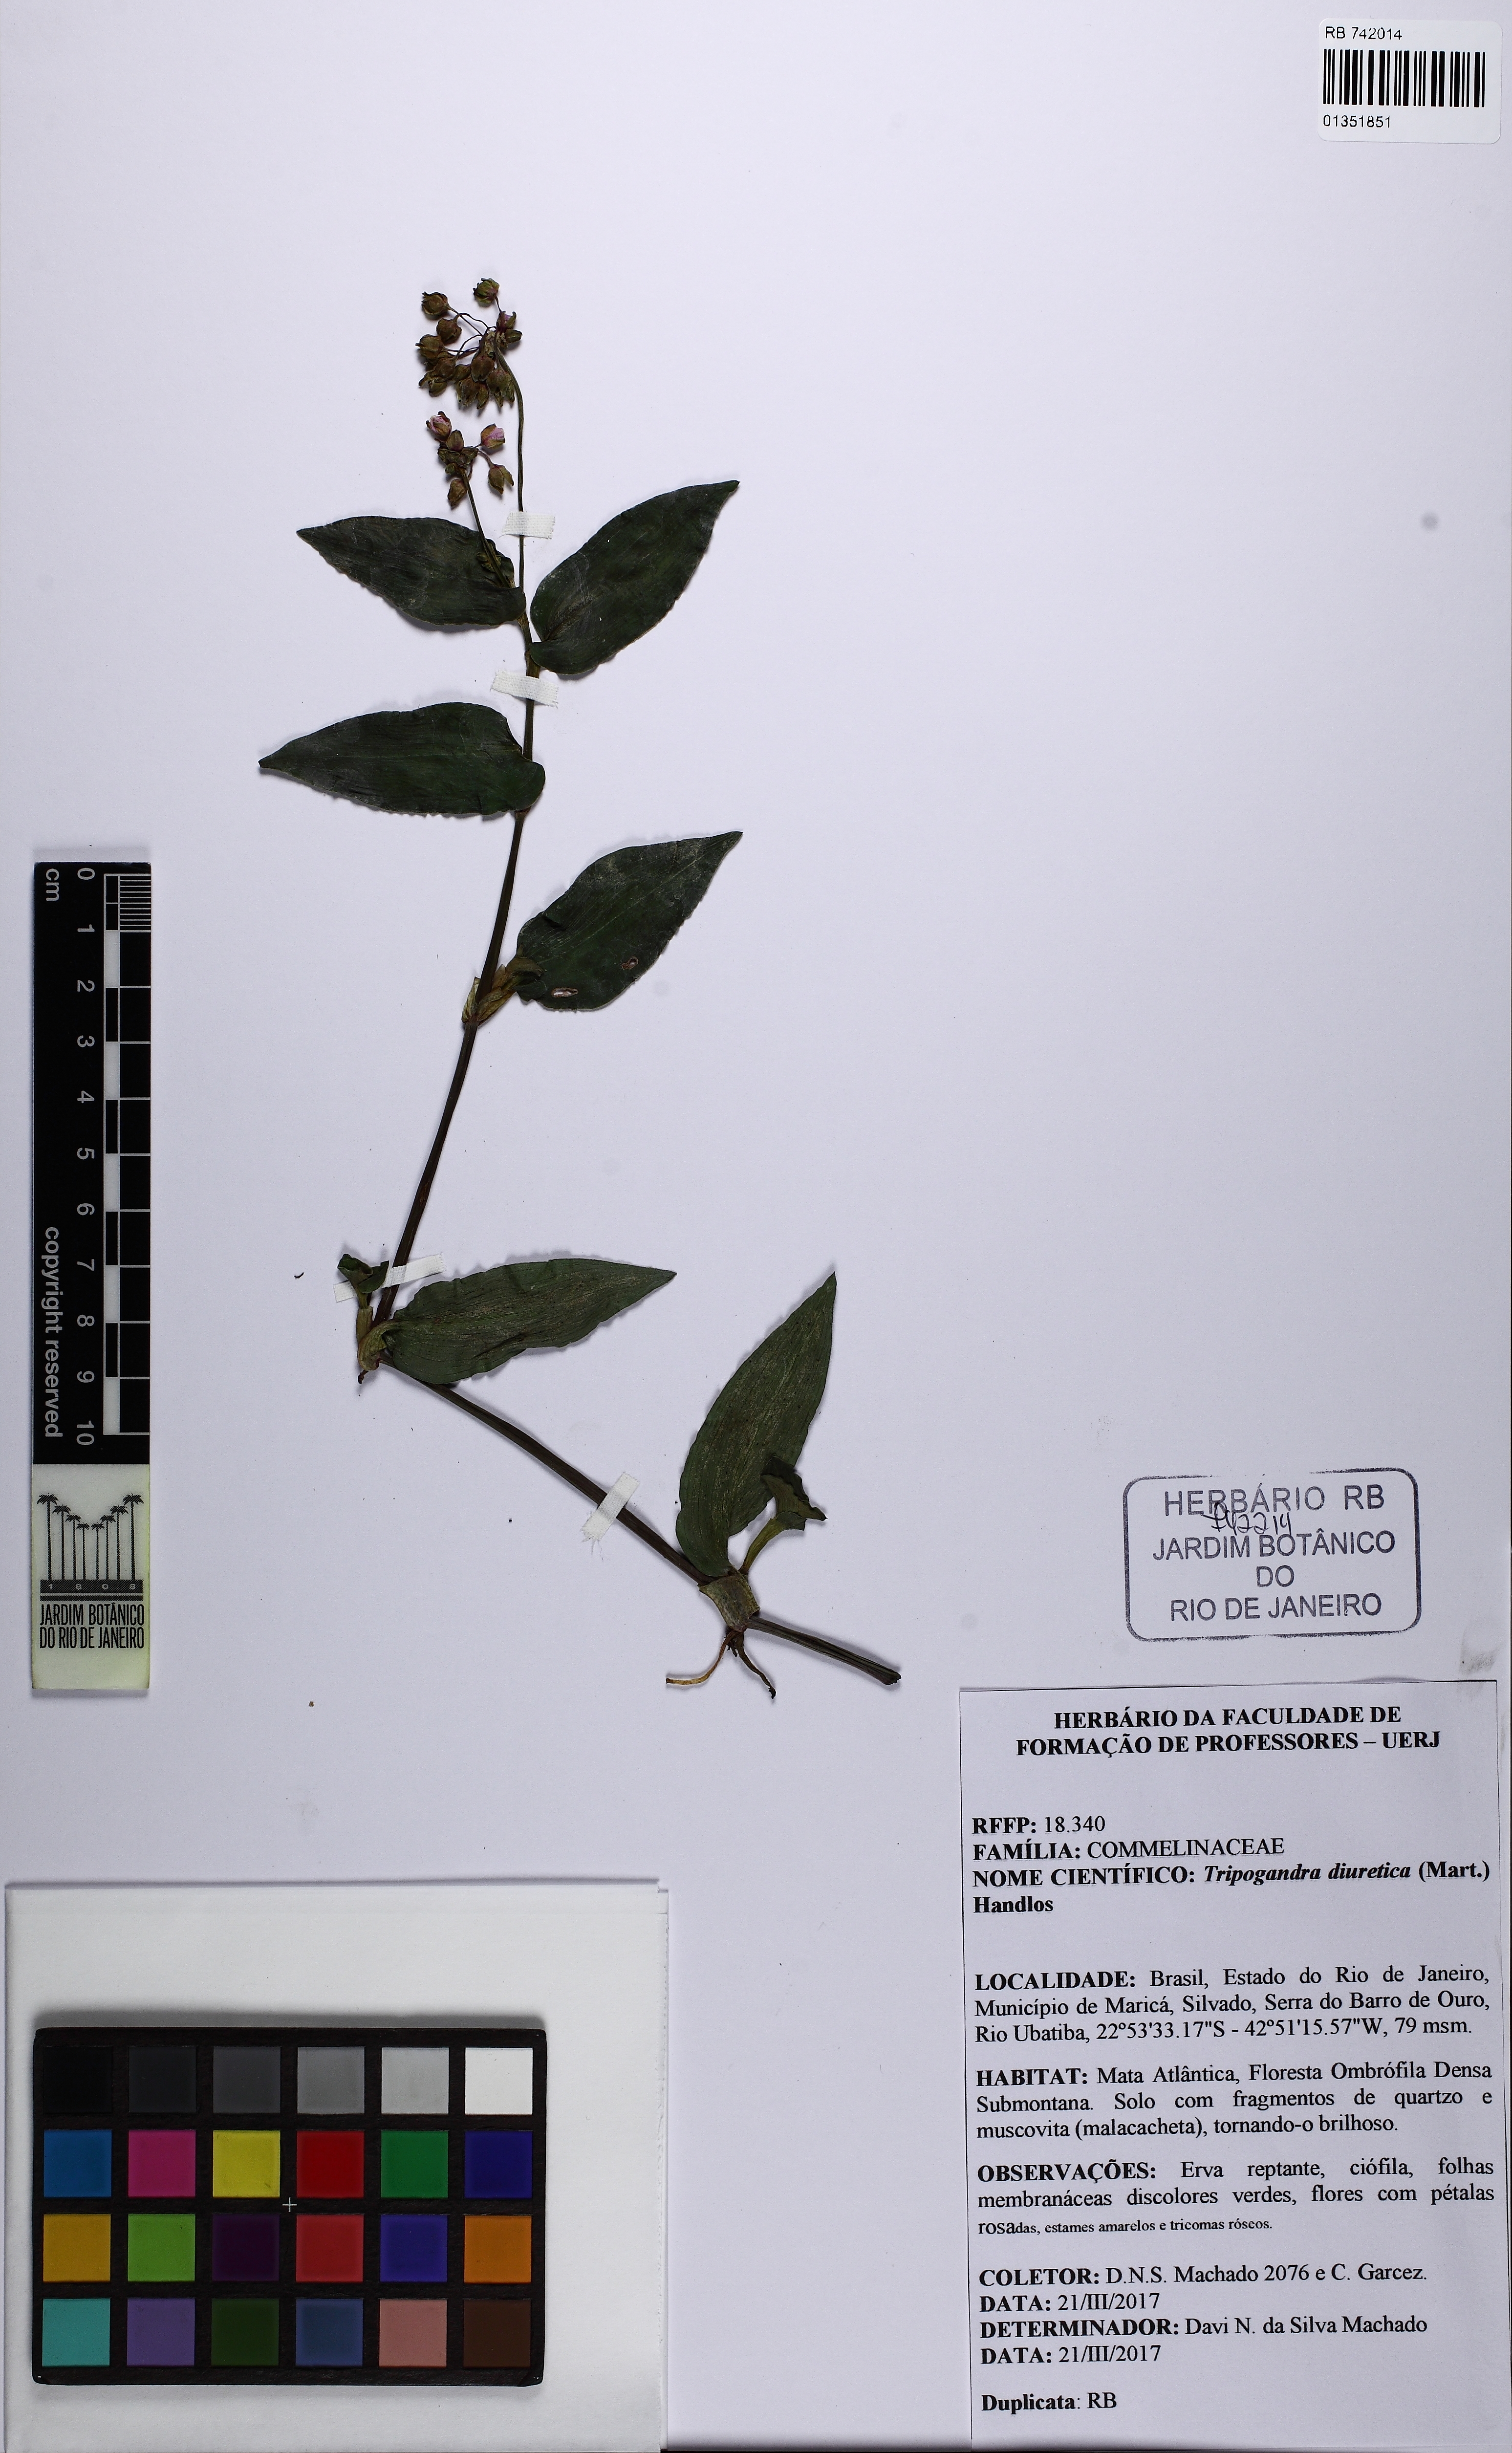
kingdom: Plantae
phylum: Tracheophyta
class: Liliopsida
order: Commelinales
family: Commelinaceae
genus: Callisia
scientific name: Callisia diuretica
